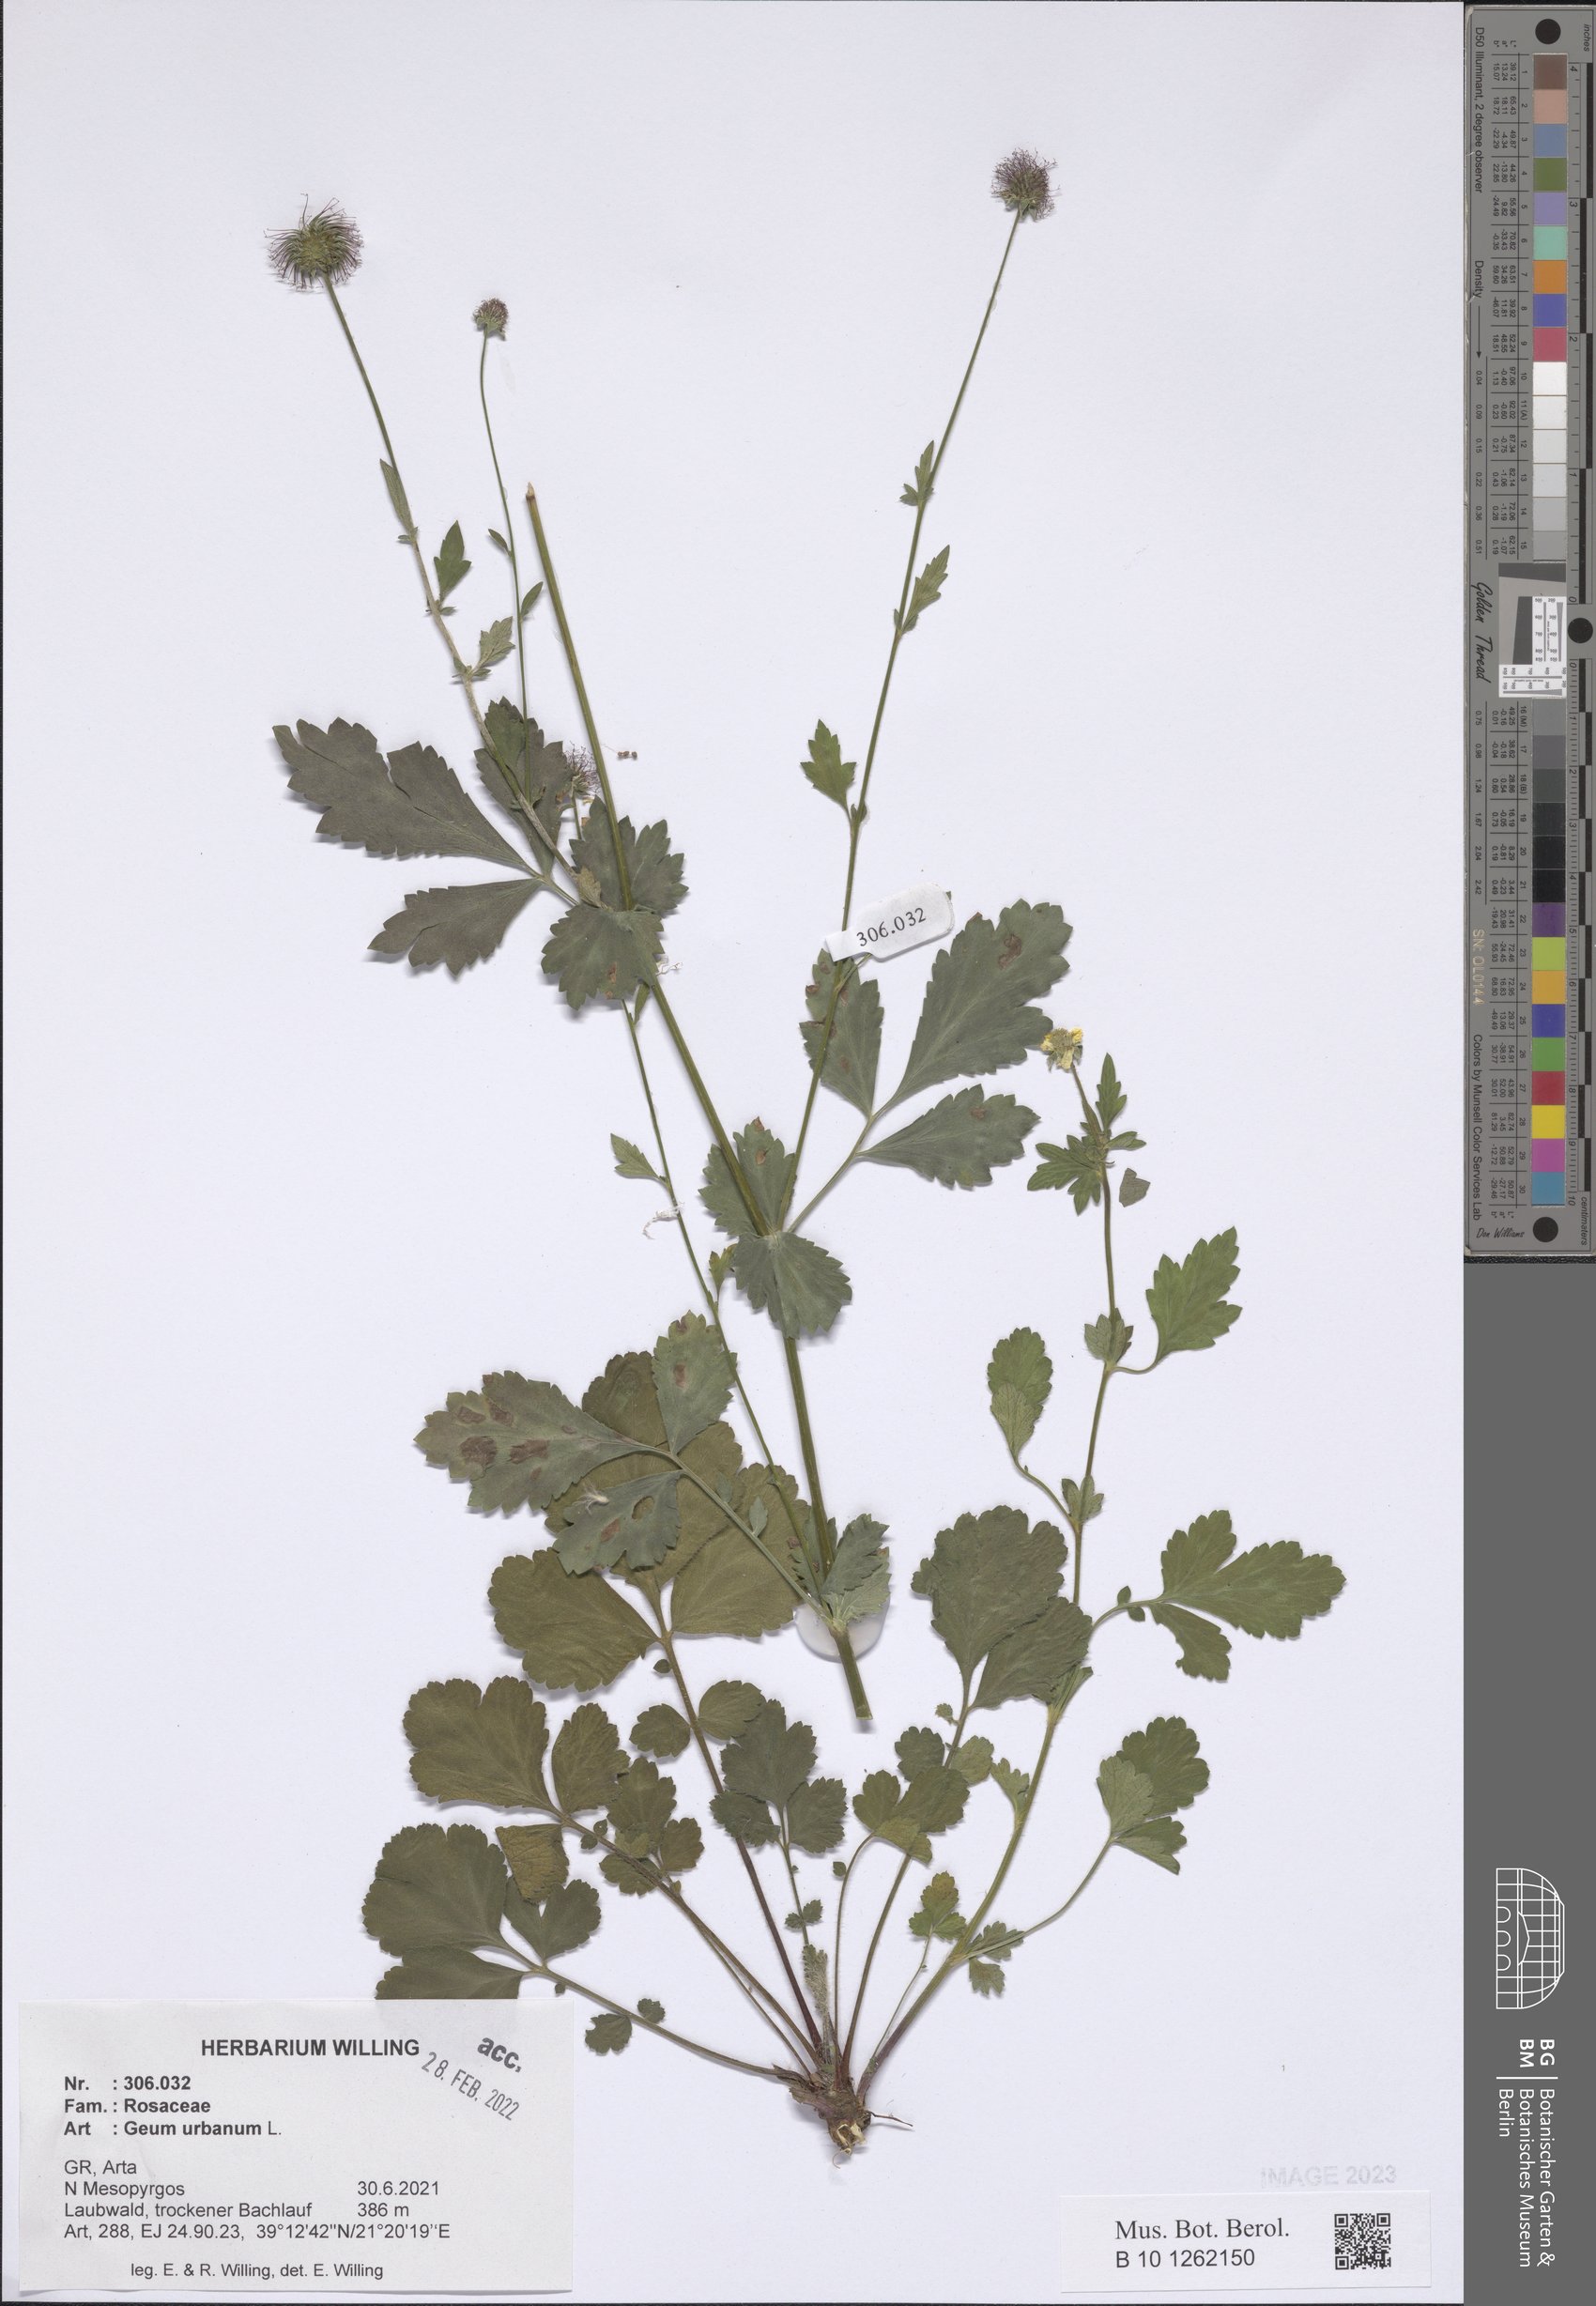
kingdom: Plantae
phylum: Tracheophyta
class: Magnoliopsida
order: Rosales
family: Rosaceae
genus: Geum
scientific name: Geum urbanum
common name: Wood avens
